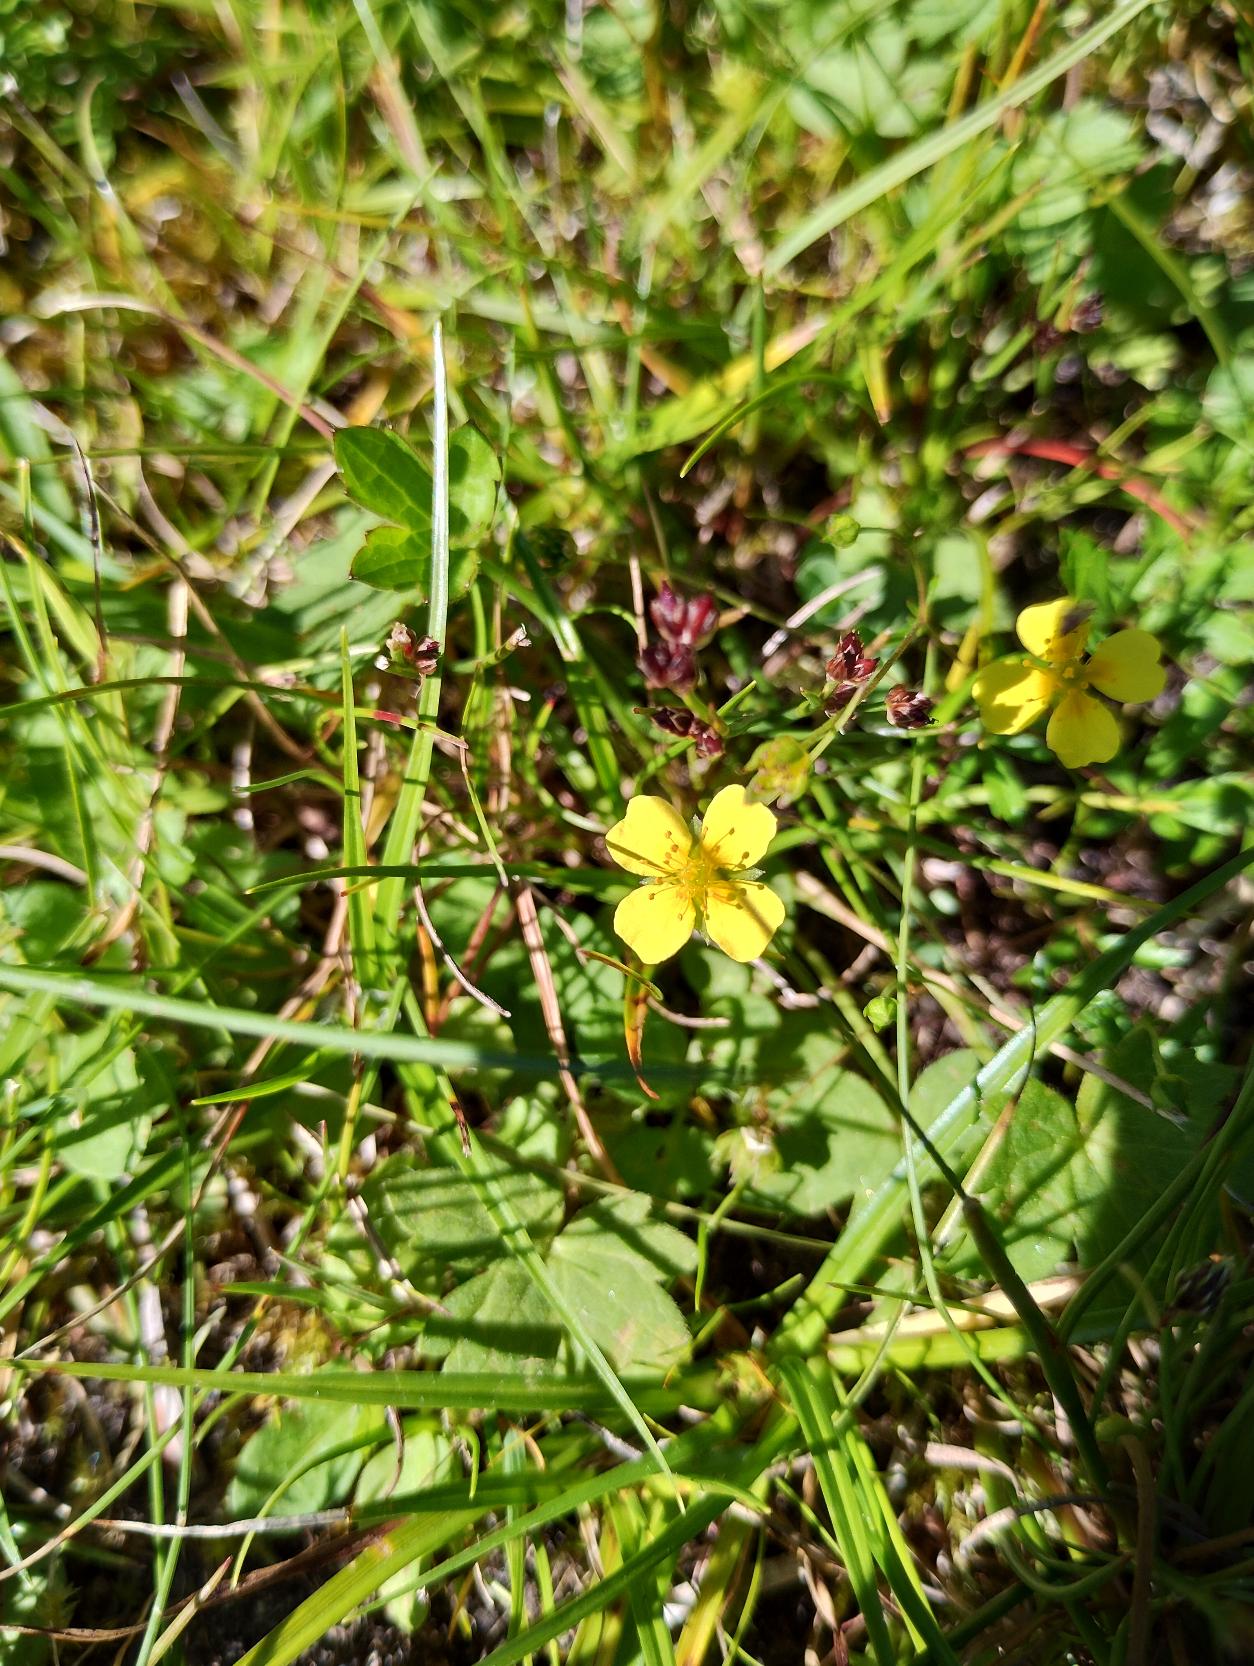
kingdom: Plantae
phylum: Tracheophyta
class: Magnoliopsida
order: Rosales
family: Rosaceae
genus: Potentilla
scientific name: Potentilla erecta
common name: Tormentil
